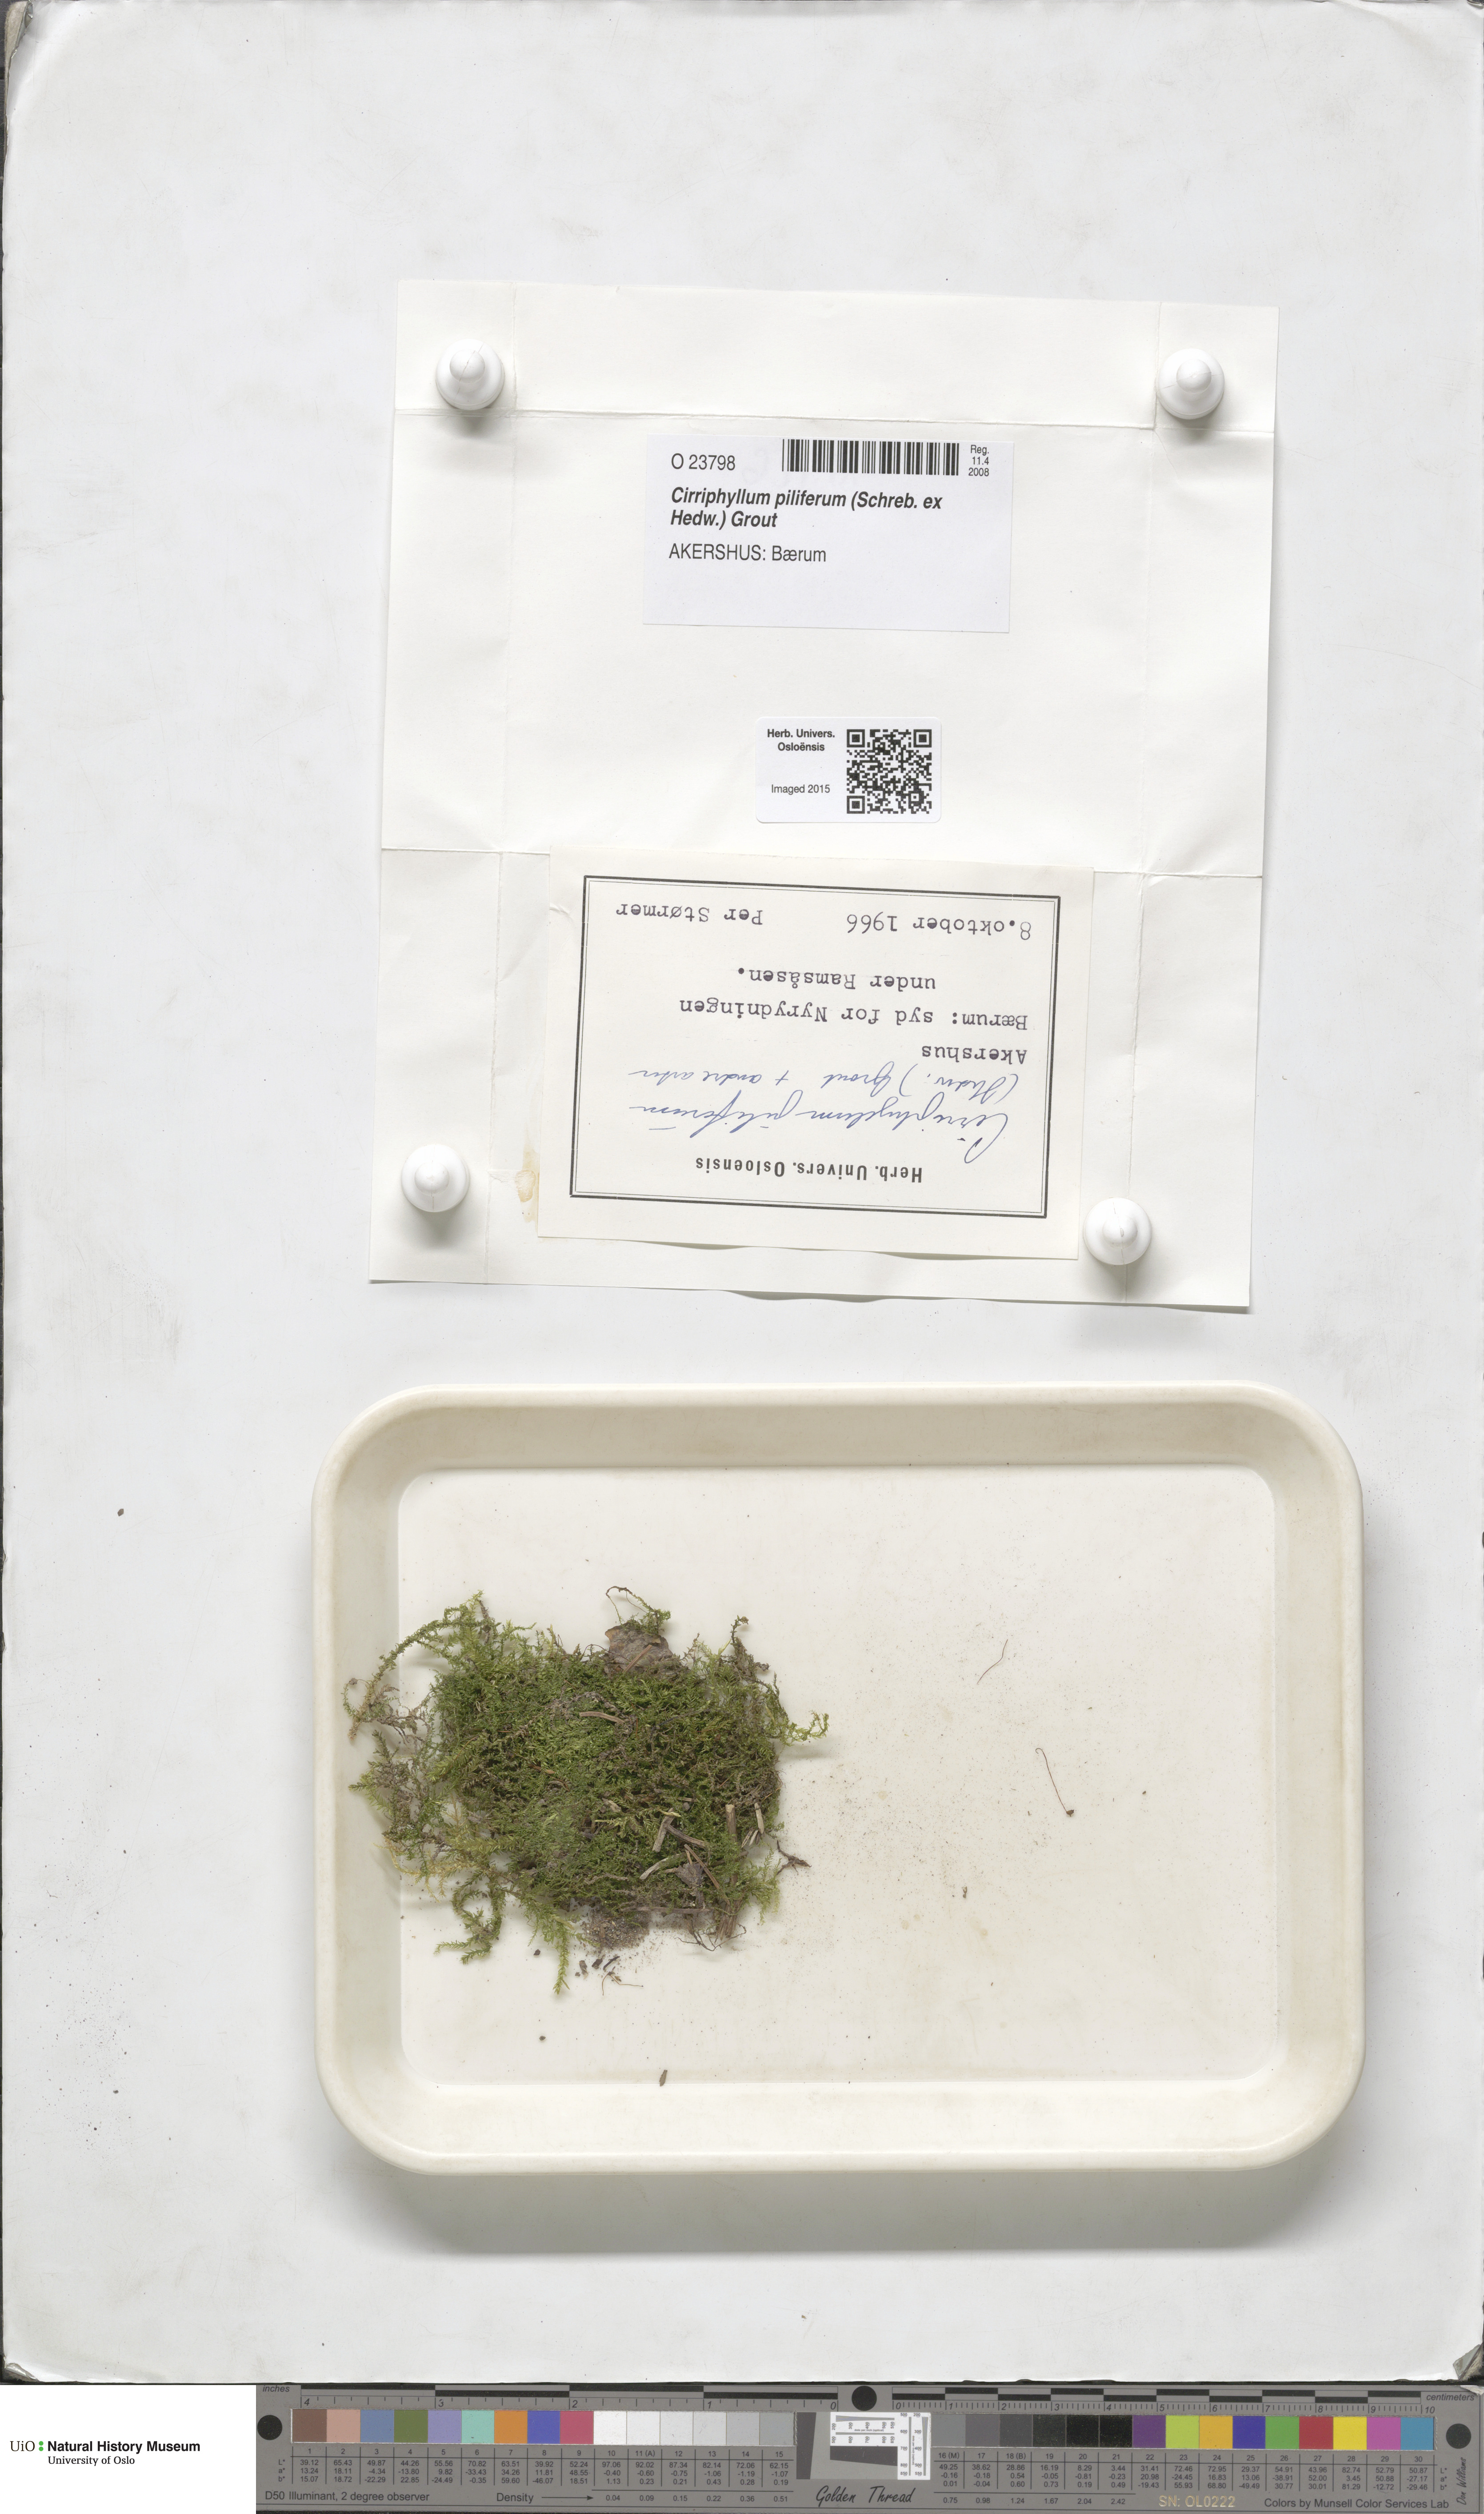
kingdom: Plantae
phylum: Bryophyta
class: Bryopsida
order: Hypnales
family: Brachytheciaceae
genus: Cirriphyllum
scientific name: Cirriphyllum piliferum
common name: Hair-pointed moss
